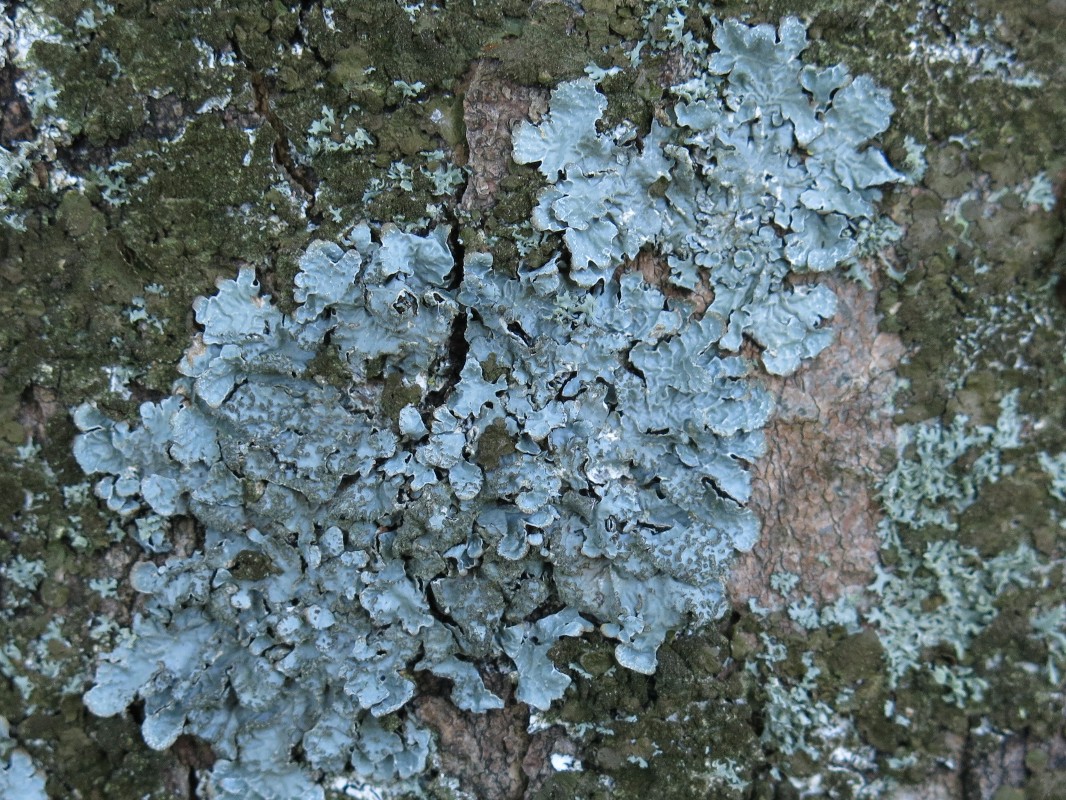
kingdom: Fungi
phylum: Ascomycota
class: Lecanoromycetes
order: Lecanorales
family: Parmeliaceae
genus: Parmelia
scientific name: Parmelia sulcata
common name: rynket skållav
